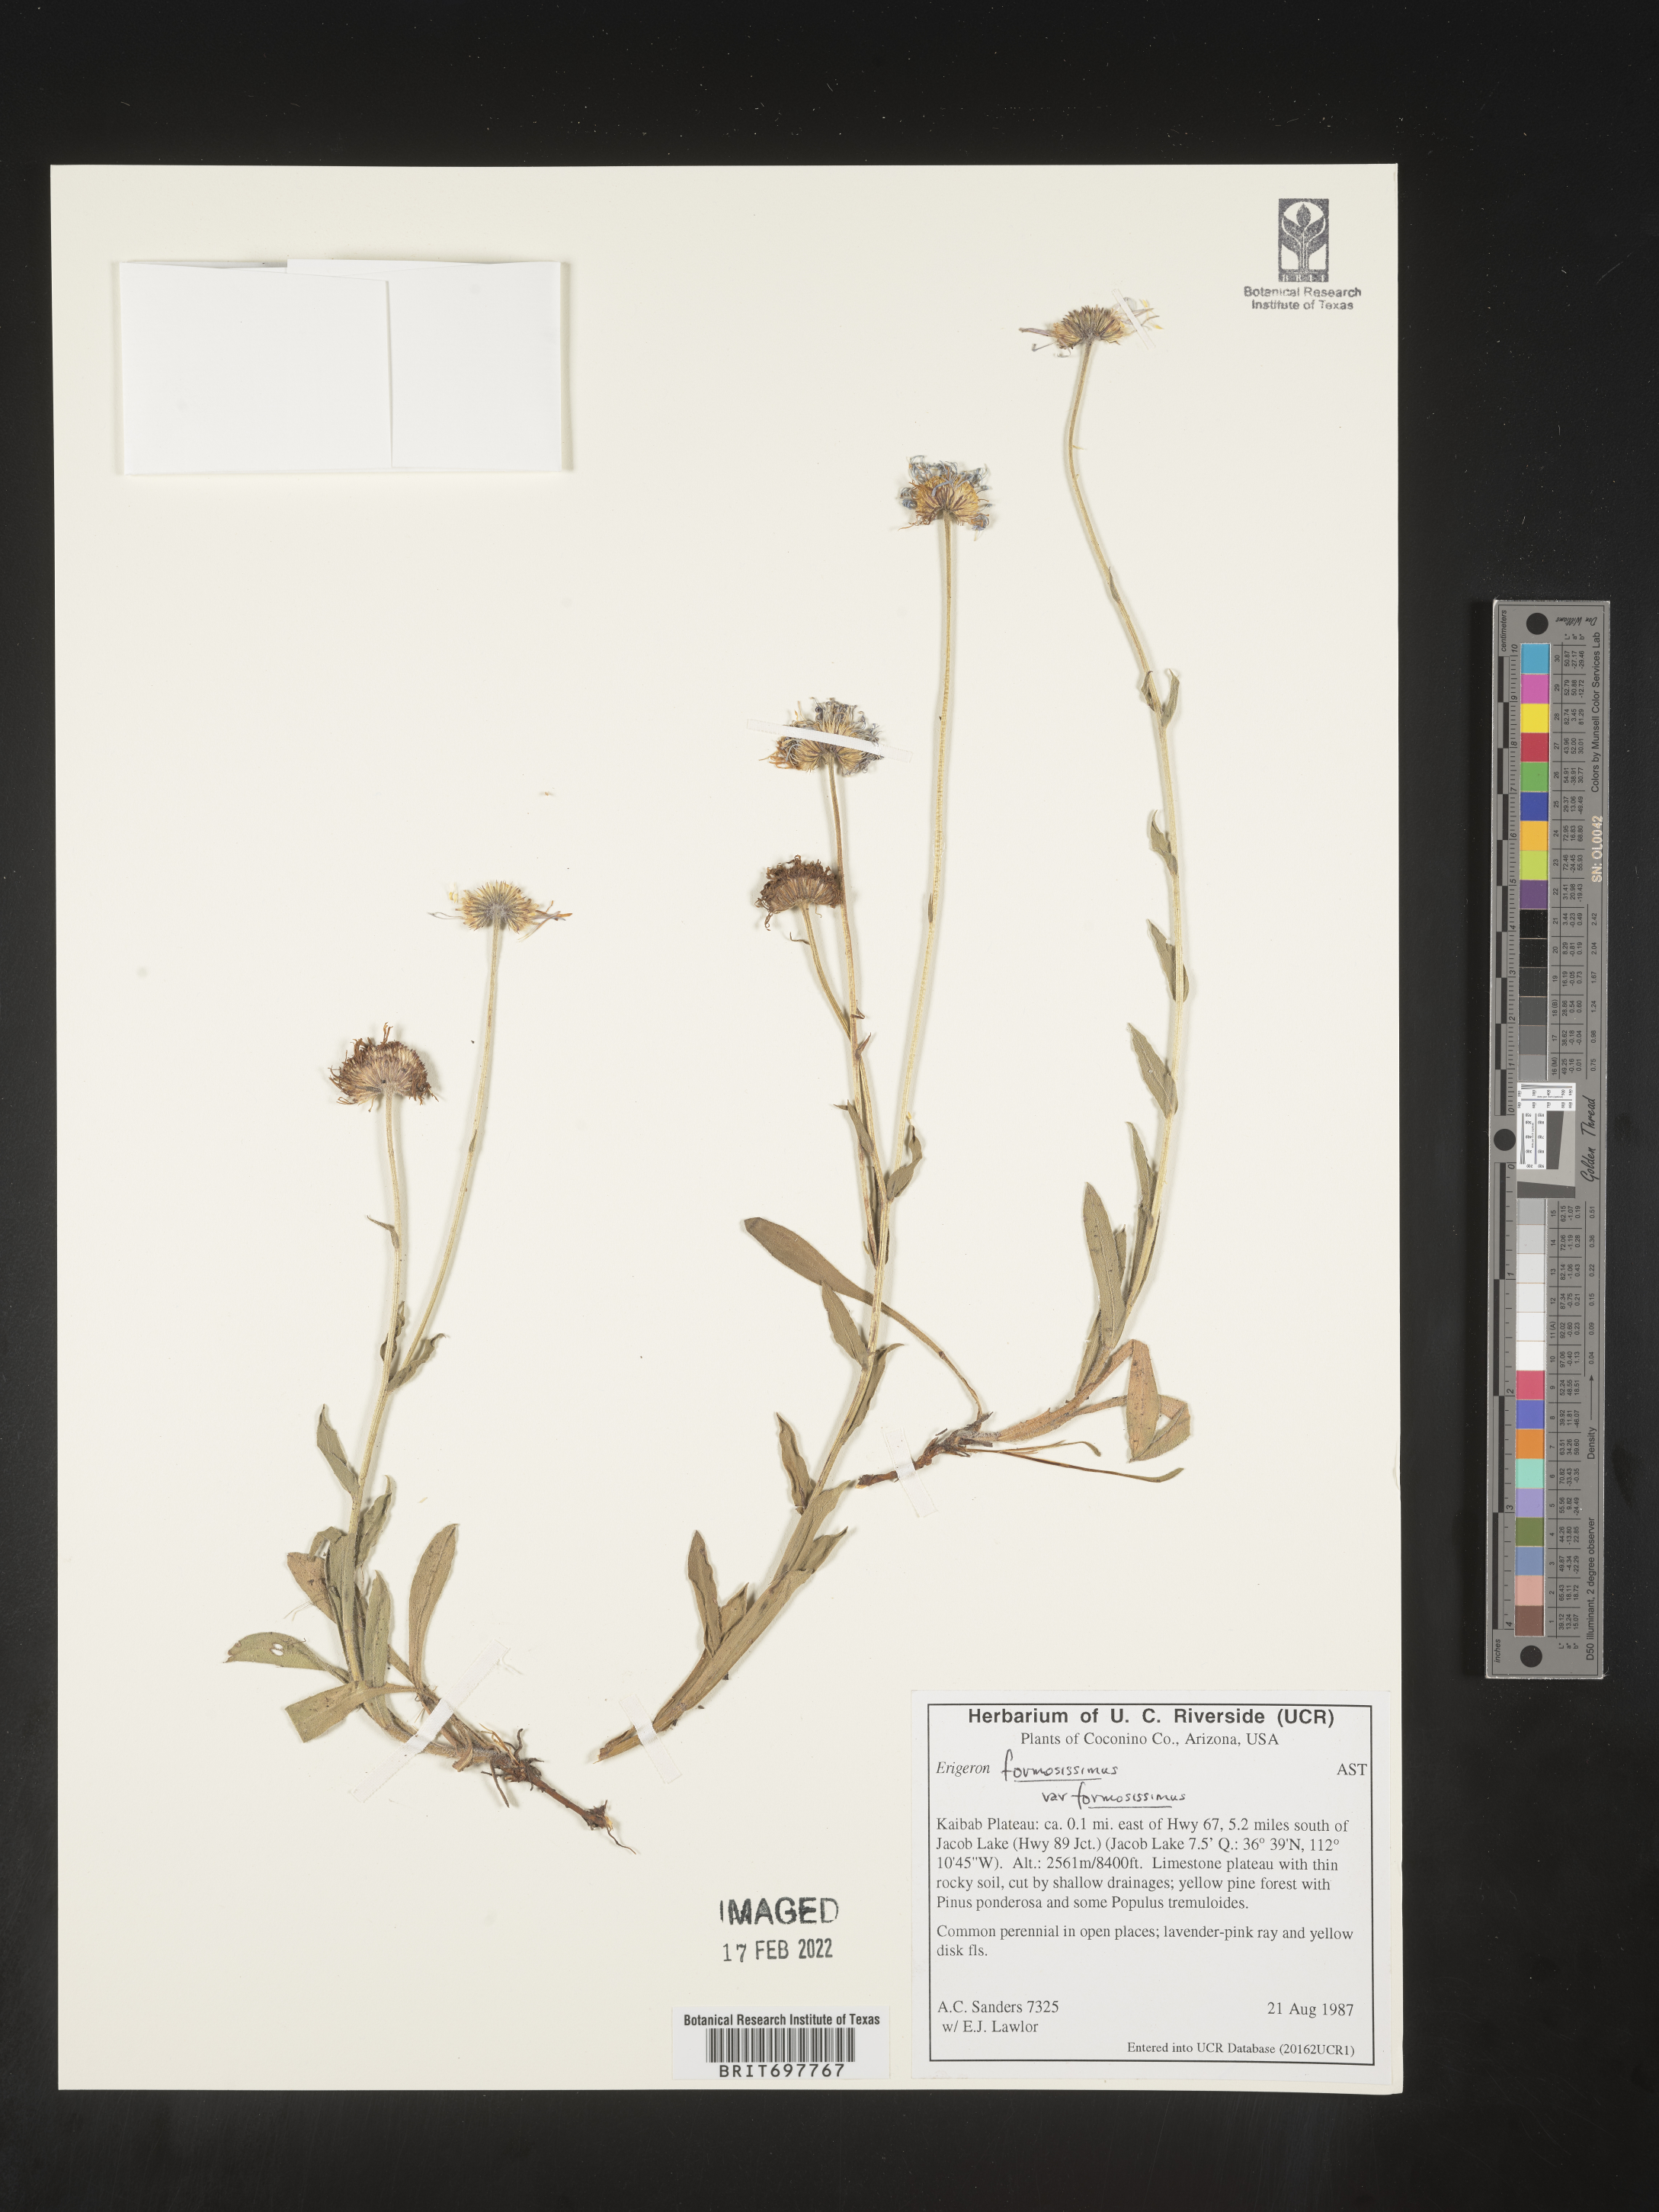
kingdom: Plantae
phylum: Tracheophyta
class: Magnoliopsida
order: Asterales
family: Asteraceae
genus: Erigeron
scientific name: Erigeron formosissimus
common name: Beautiful fleabane
